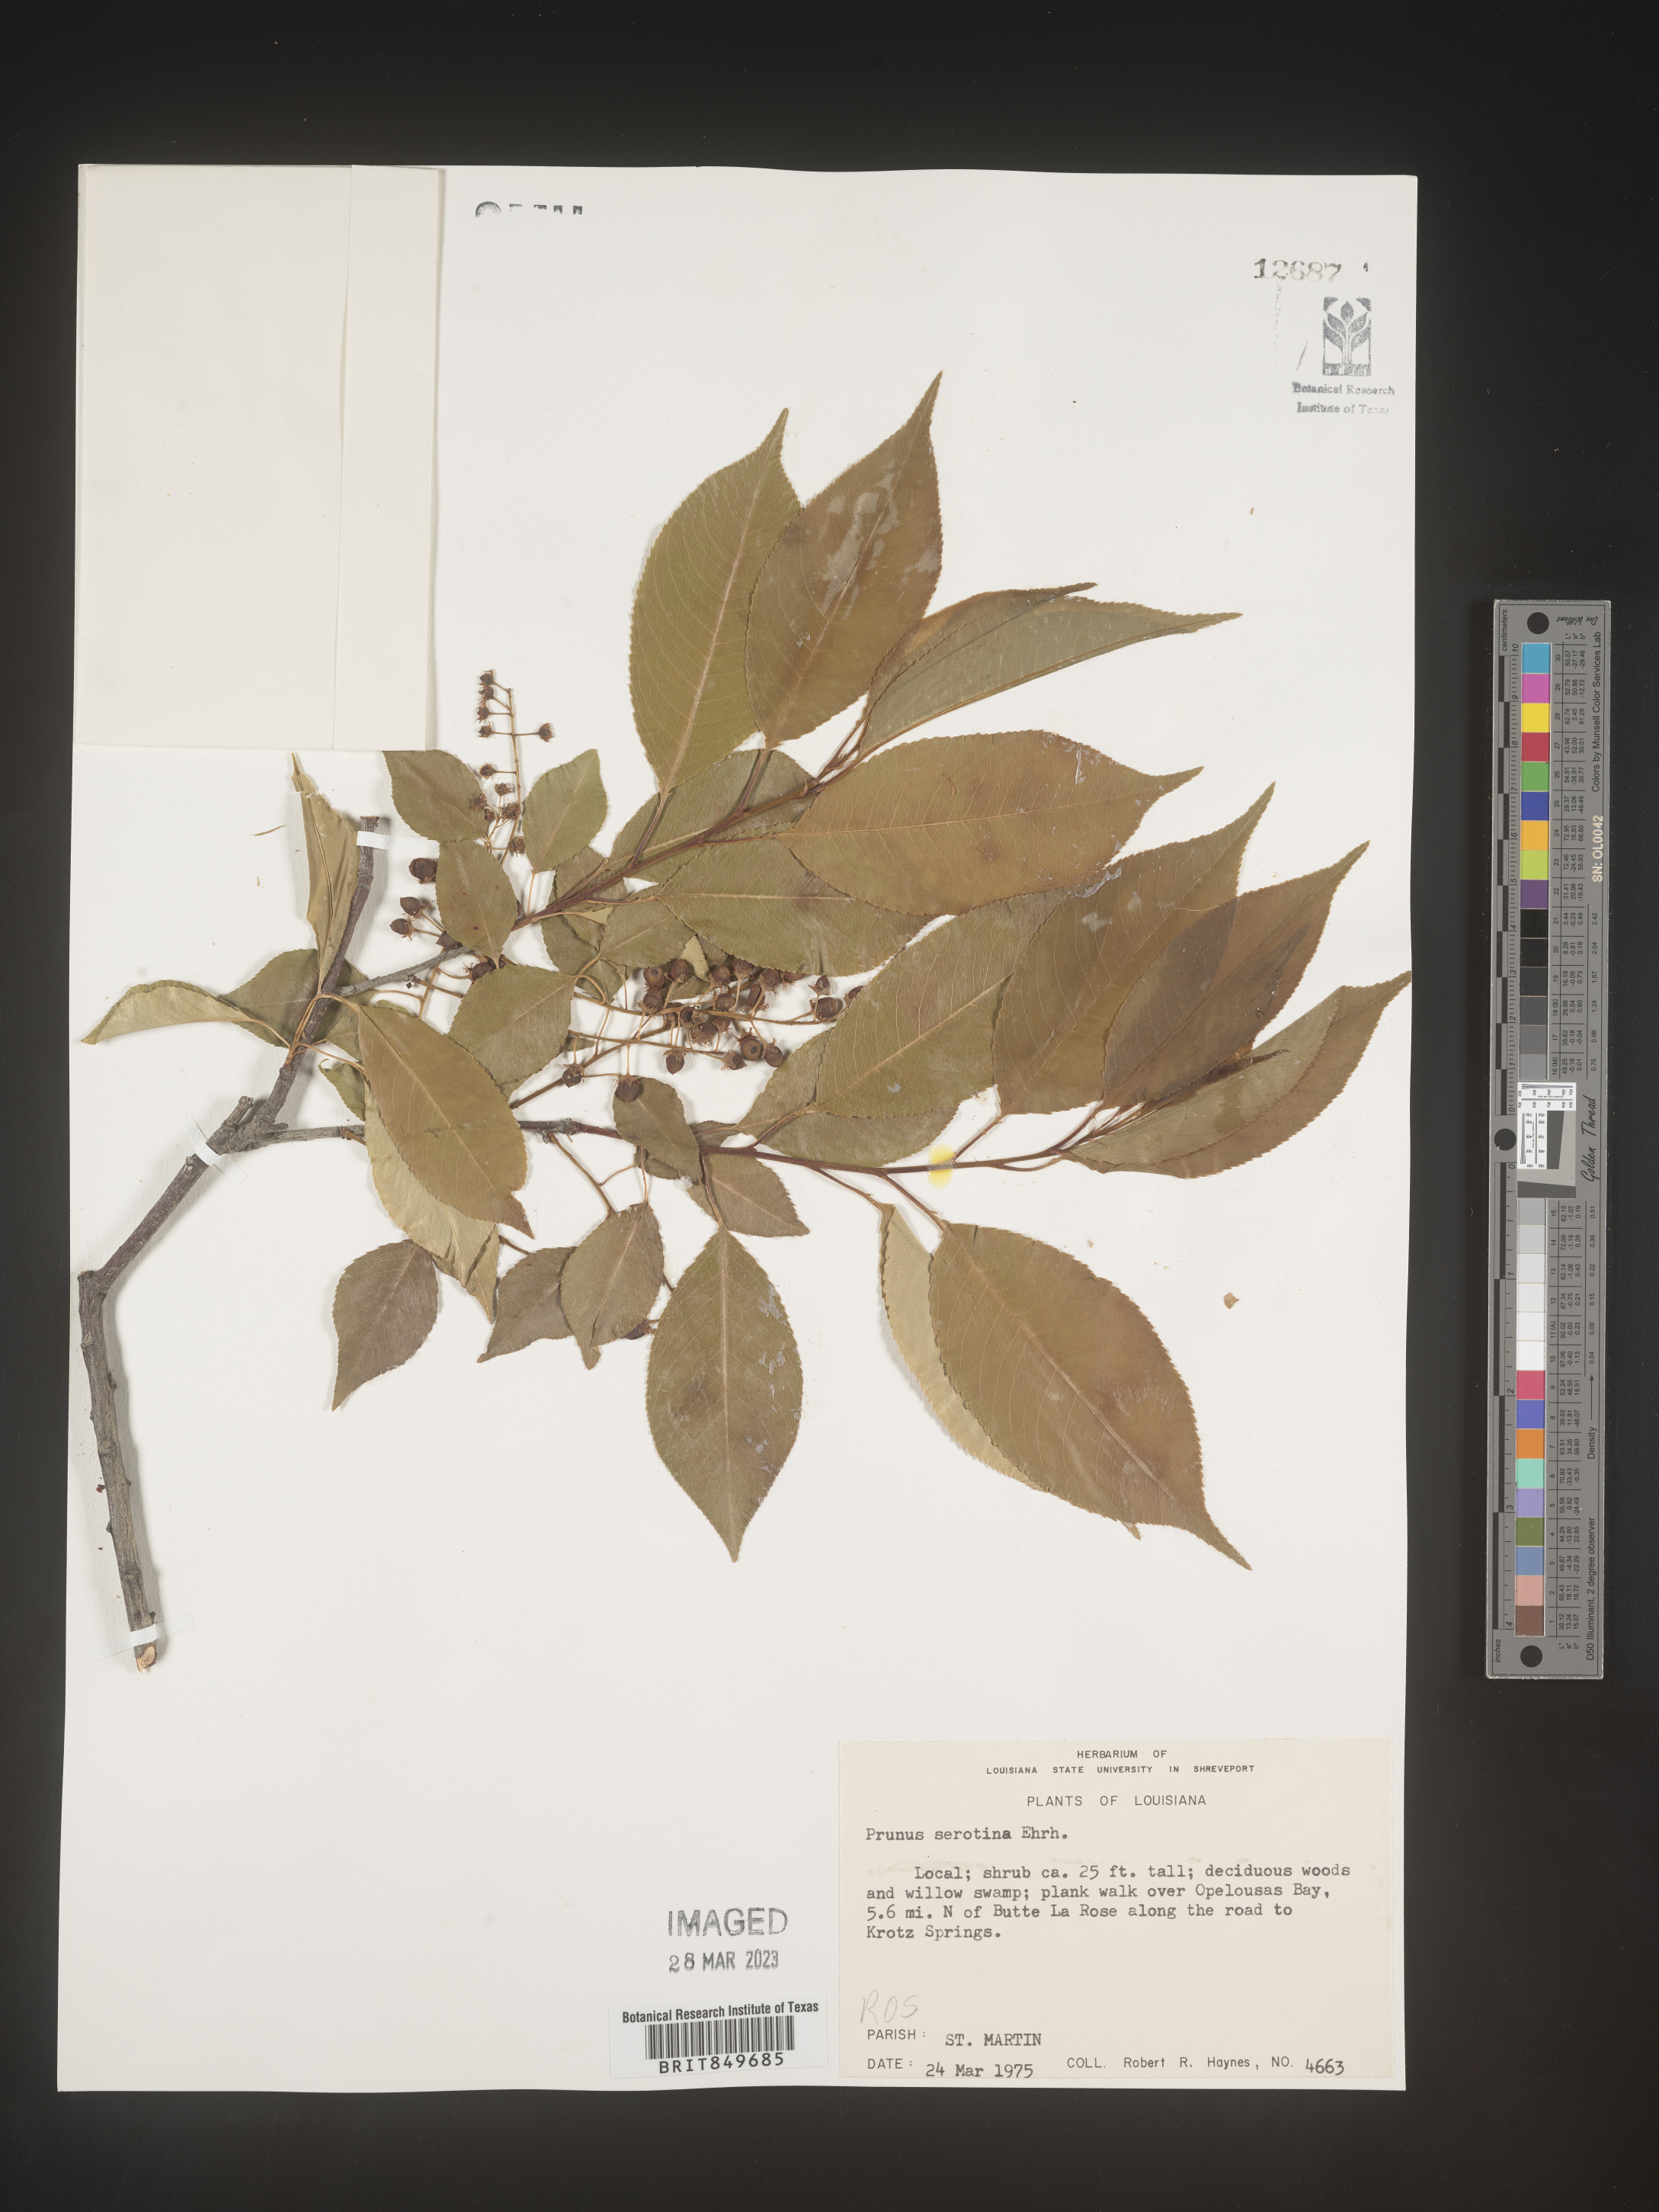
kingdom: Plantae
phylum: Tracheophyta
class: Magnoliopsida
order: Rosales
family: Rosaceae
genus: Prunus
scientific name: Prunus serotina
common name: Black cherry
